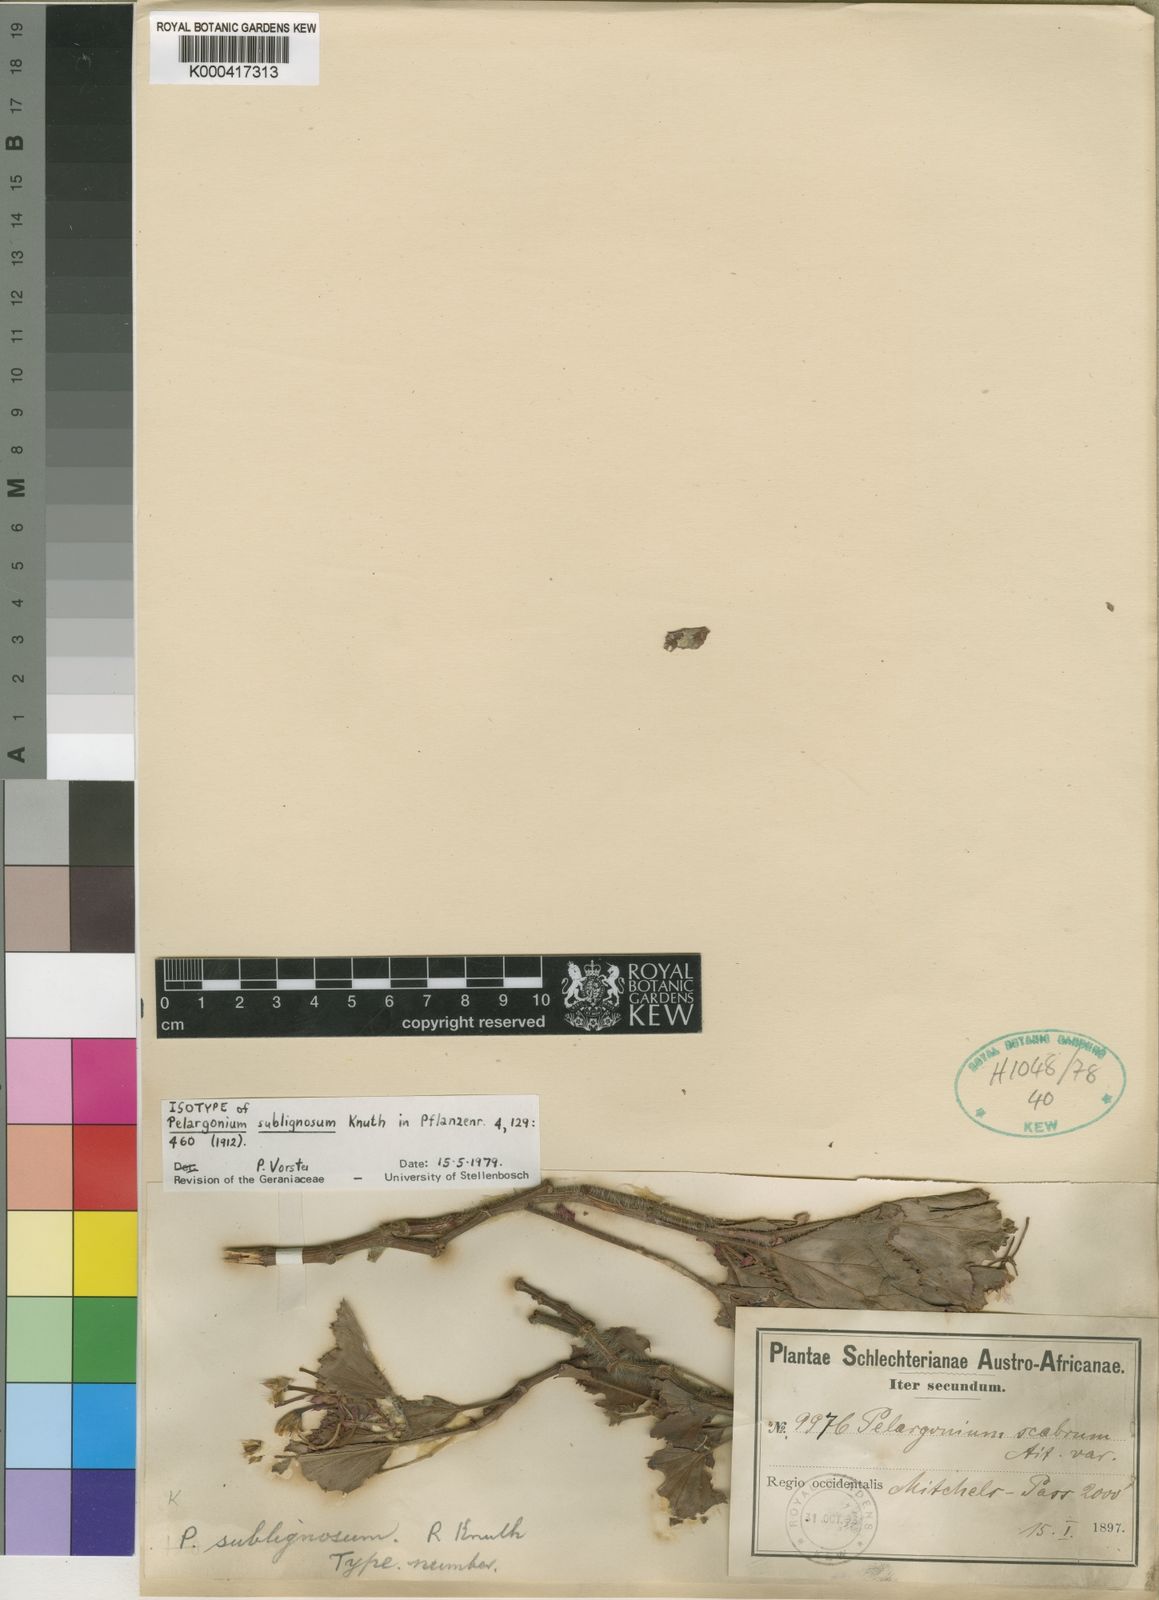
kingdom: Plantae
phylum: Tracheophyta
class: Magnoliopsida
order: Geraniales
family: Geraniaceae
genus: Pelargonium
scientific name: Pelargonium sublignosum
